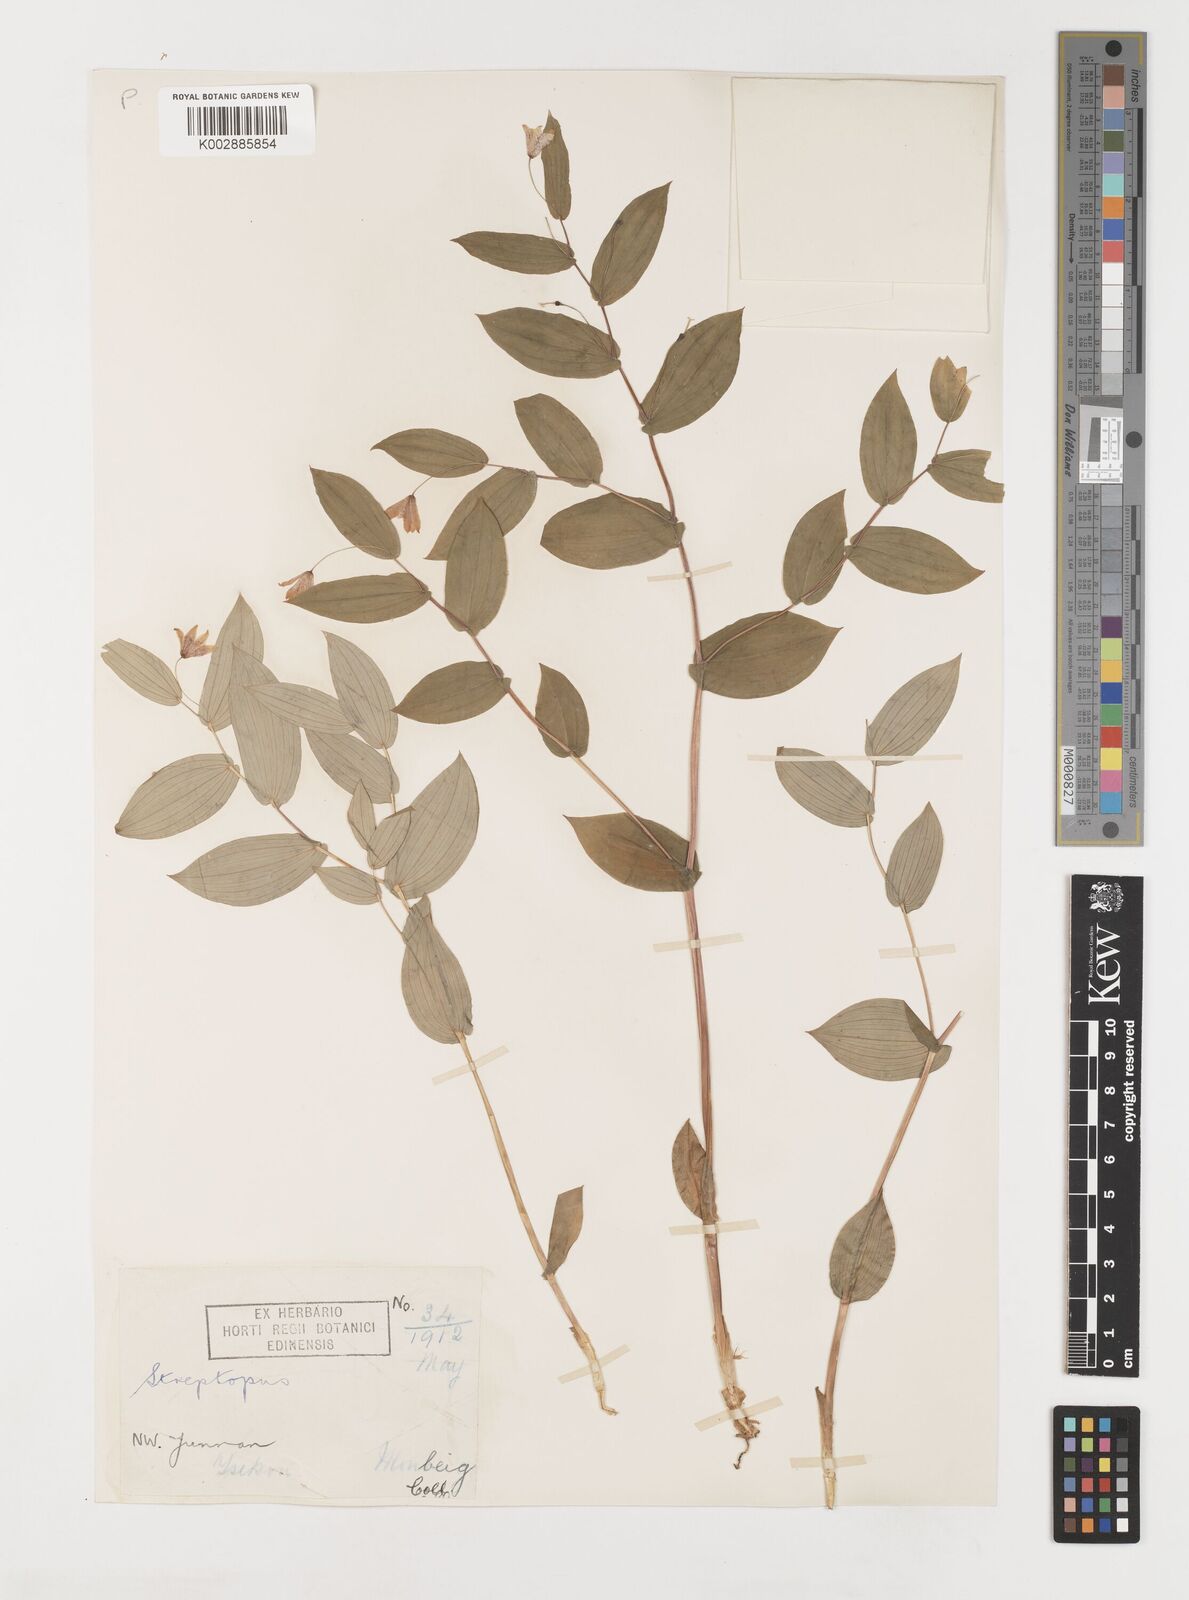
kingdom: Plantae
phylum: Tracheophyta
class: Liliopsida
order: Liliales
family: Liliaceae
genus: Streptopus
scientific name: Streptopus simplex
